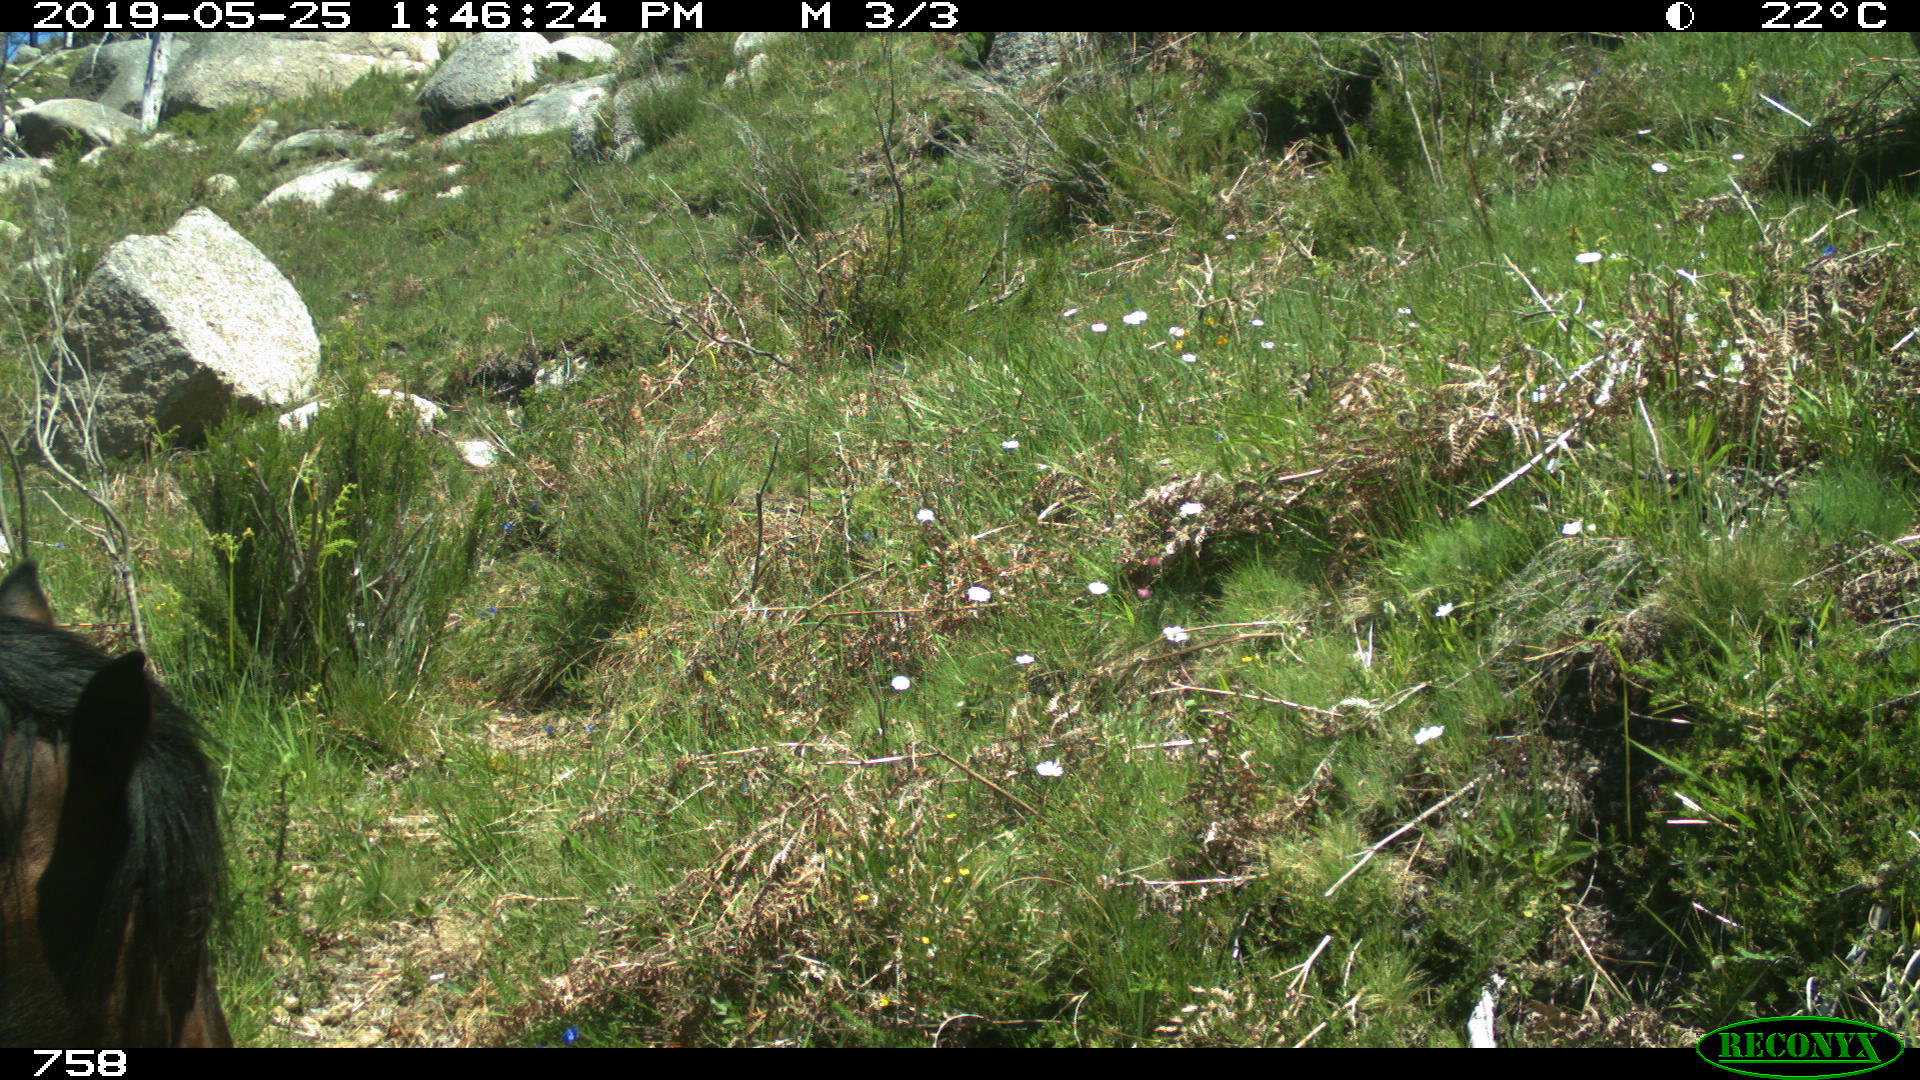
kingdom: Animalia
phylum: Chordata
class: Mammalia
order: Perissodactyla
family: Equidae
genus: Equus
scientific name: Equus caballus
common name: Horse
